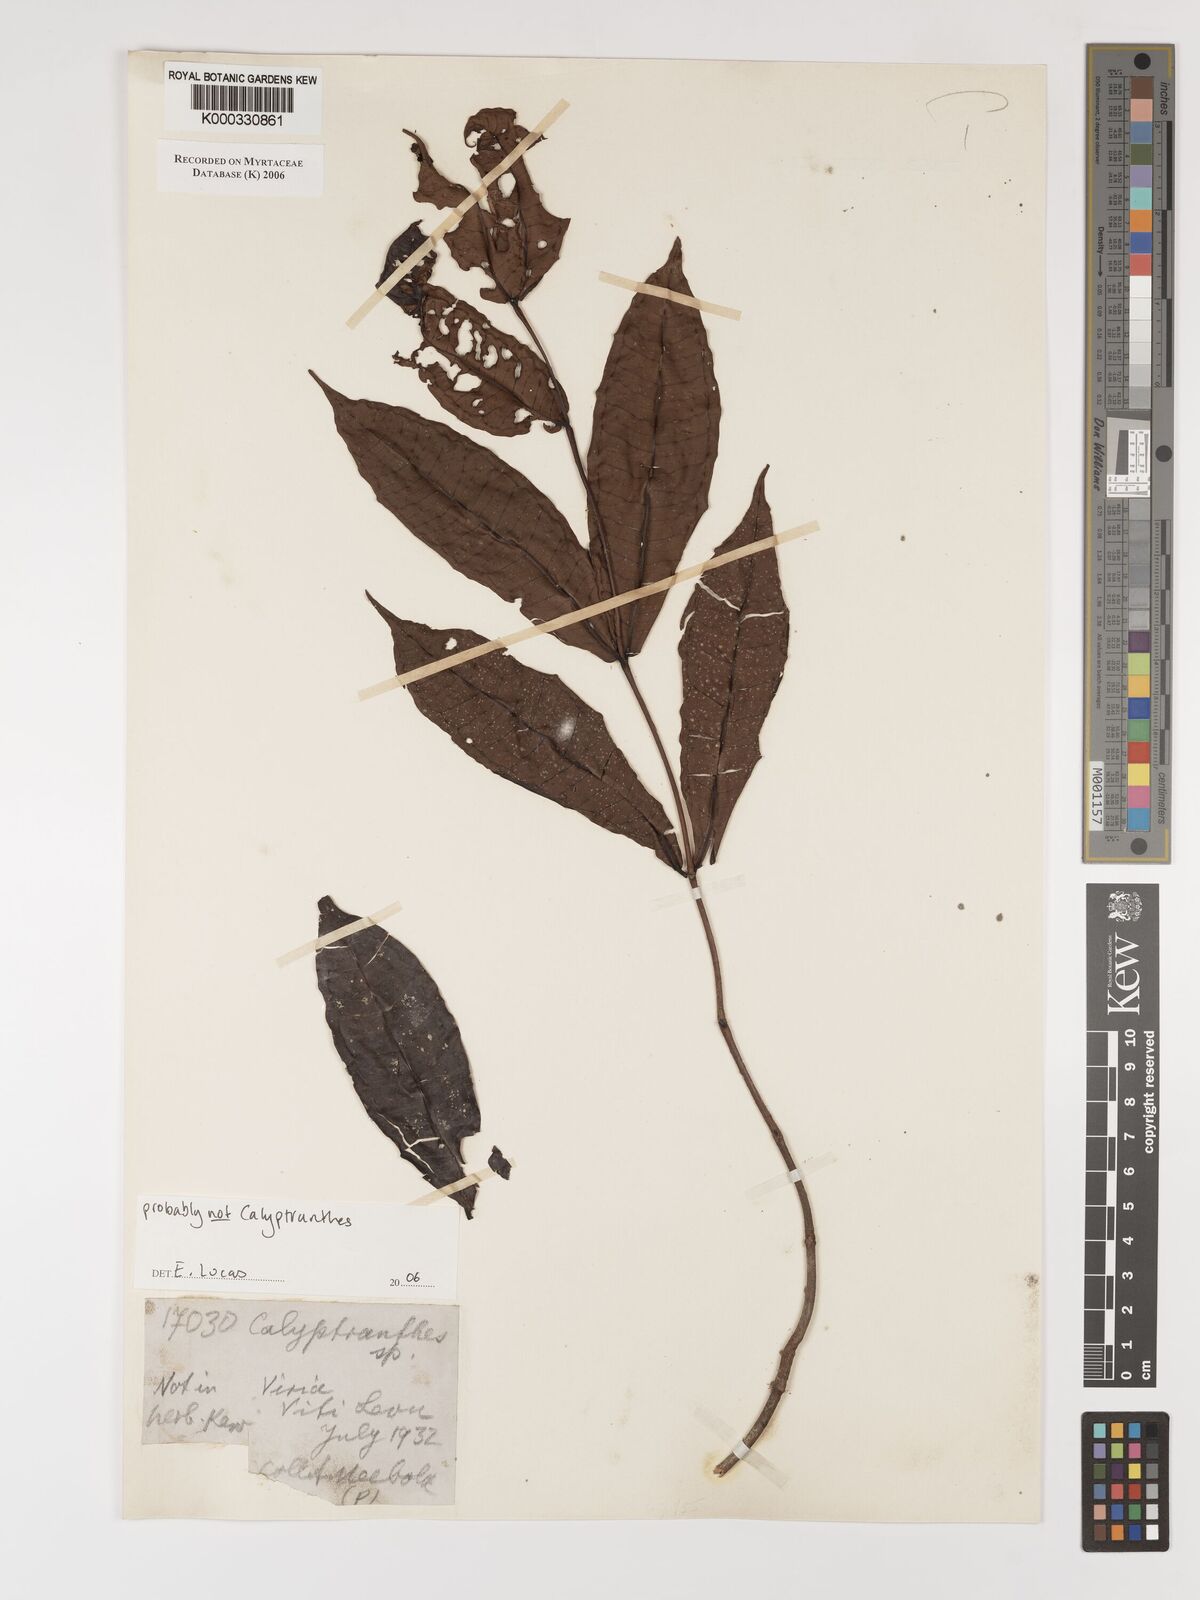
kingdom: Plantae
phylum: Tracheophyta
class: Magnoliopsida
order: Myrtales
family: Myrtaceae
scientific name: Myrtaceae
